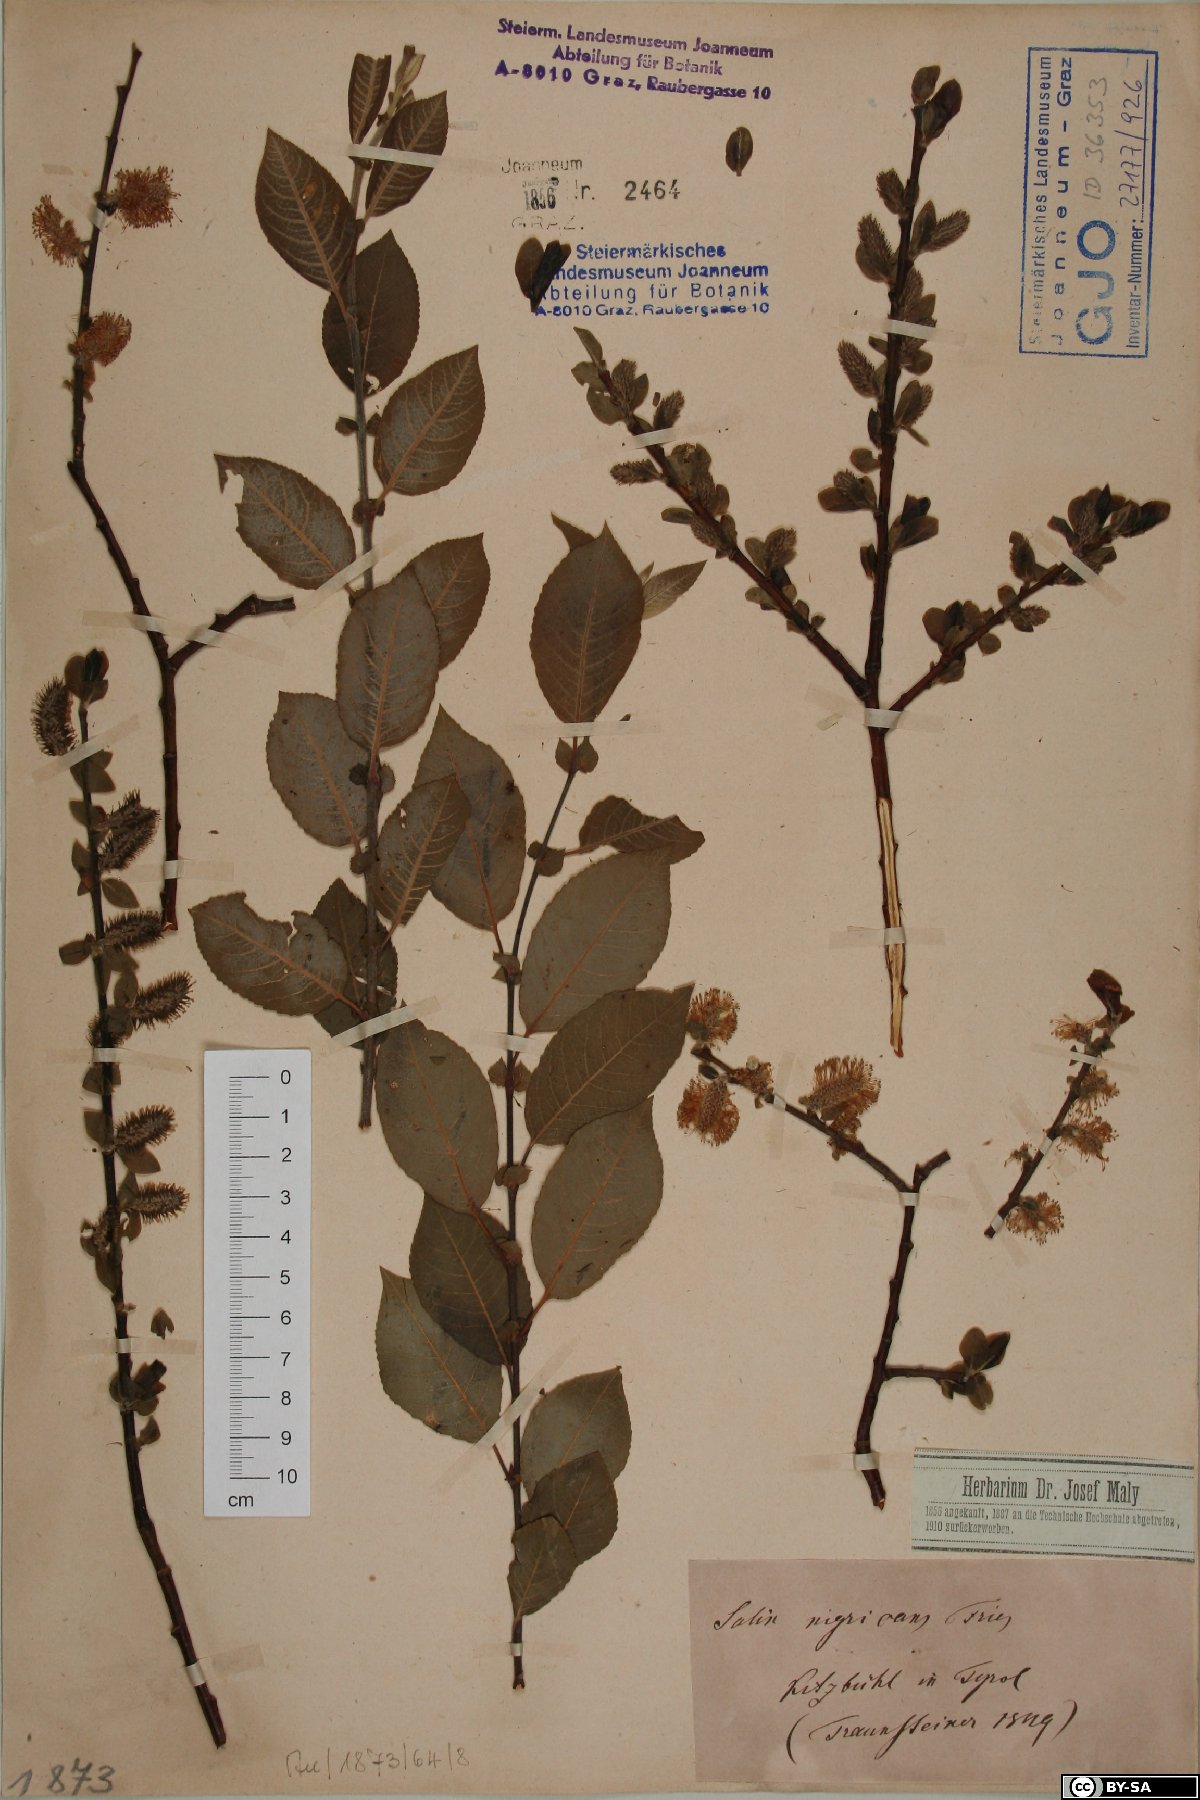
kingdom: Plantae
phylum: Tracheophyta
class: Magnoliopsida
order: Malpighiales
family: Salicaceae
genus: Salix
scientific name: Salix myrsinifolia
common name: Dark-leaved willow
